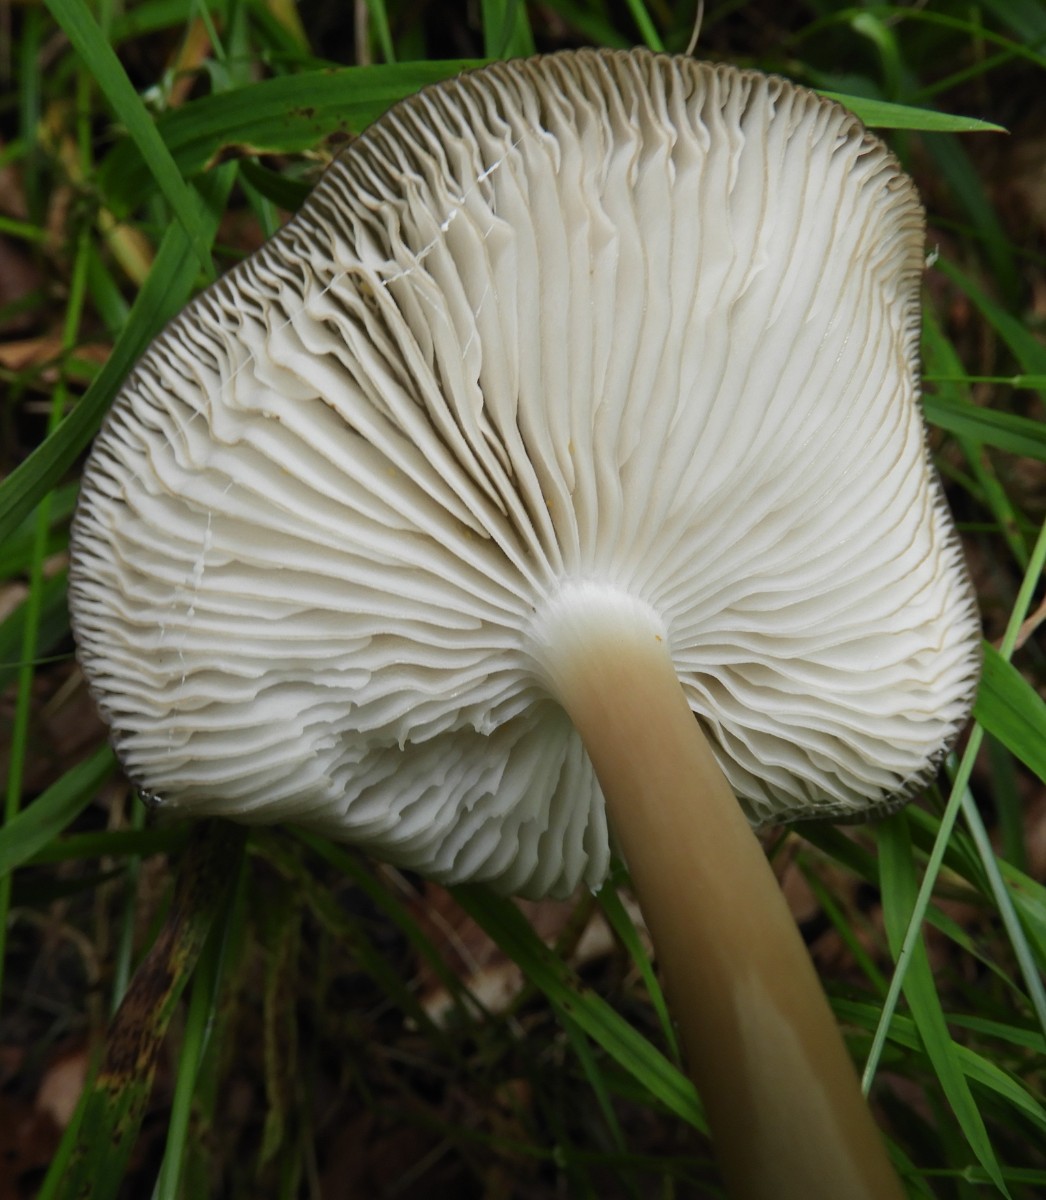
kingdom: Fungi
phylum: Basidiomycota
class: Agaricomycetes
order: Agaricales
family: Physalacriaceae
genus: Hymenopellis
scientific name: Hymenopellis radicata
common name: almindelig pælerodshat
